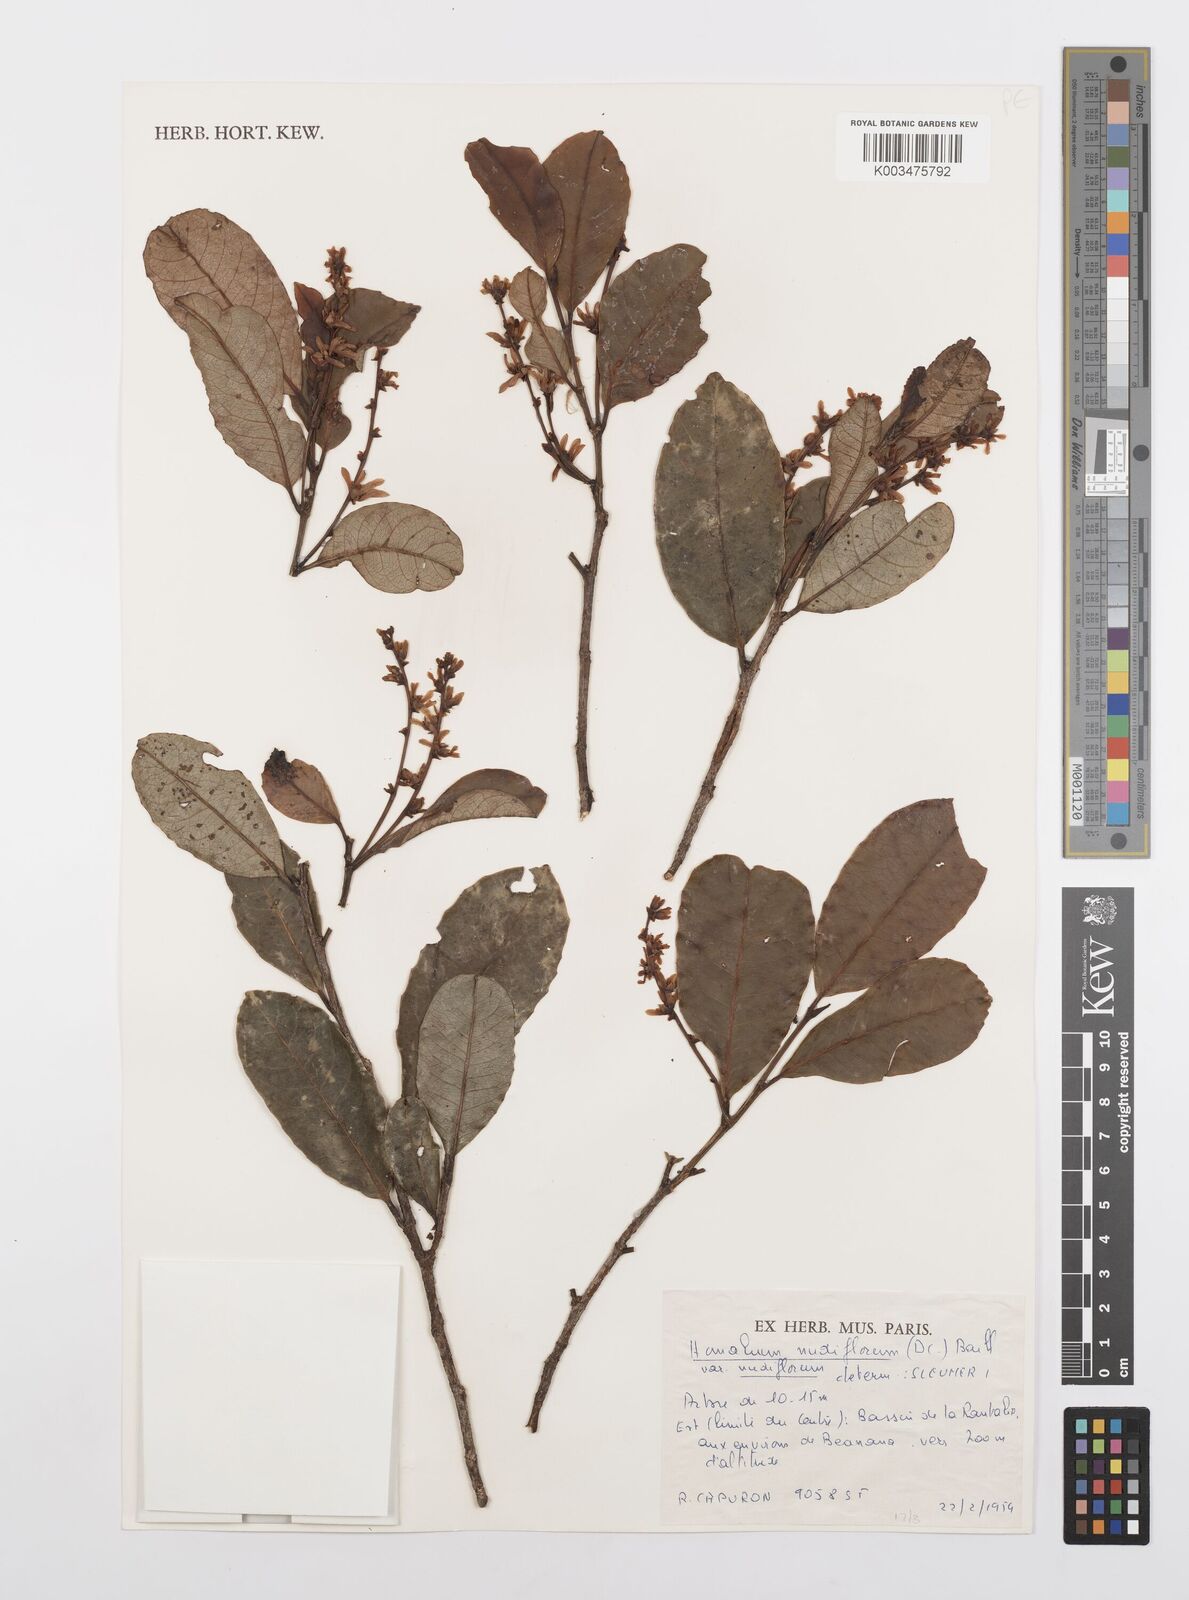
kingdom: Plantae
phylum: Tracheophyta
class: Magnoliopsida
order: Malpighiales
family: Salicaceae
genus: Homalium
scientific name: Homalium nudiflorum
